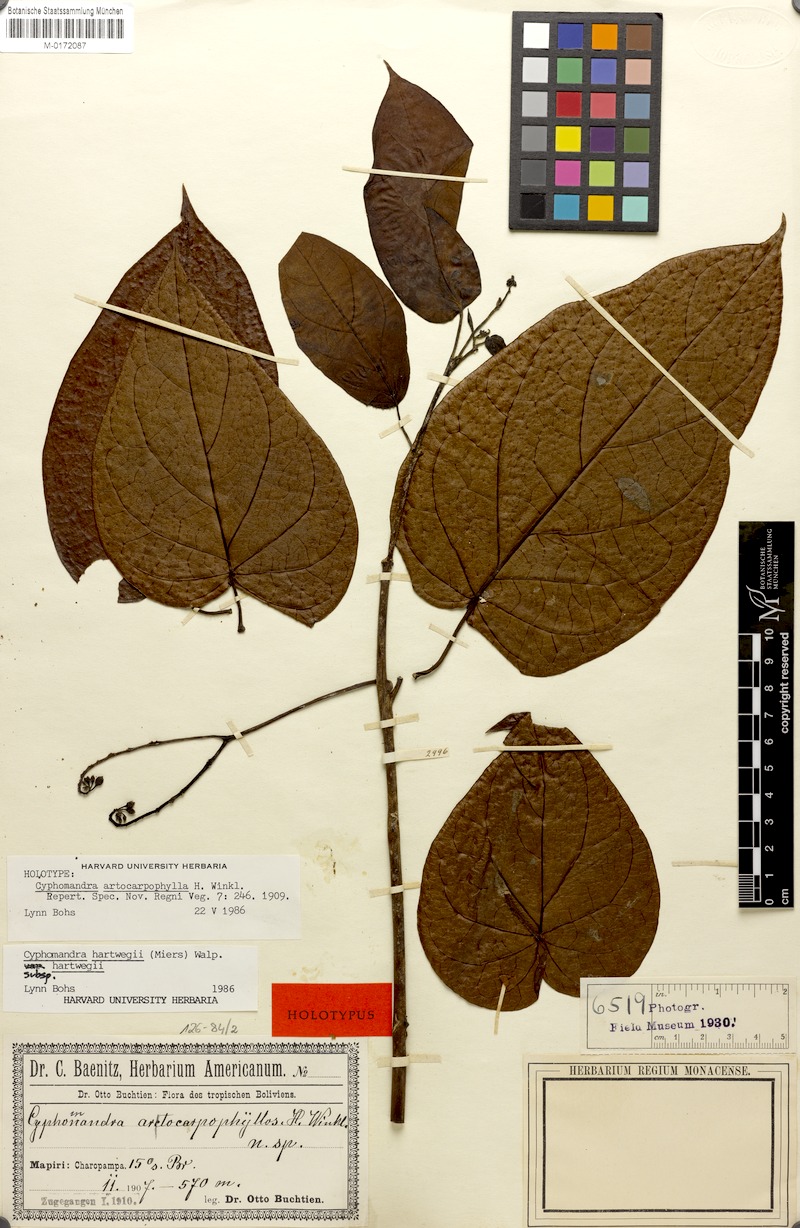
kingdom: Plantae
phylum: Tracheophyta
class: Magnoliopsida
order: Solanales
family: Solanaceae
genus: Solanum
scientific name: Solanum splendens
